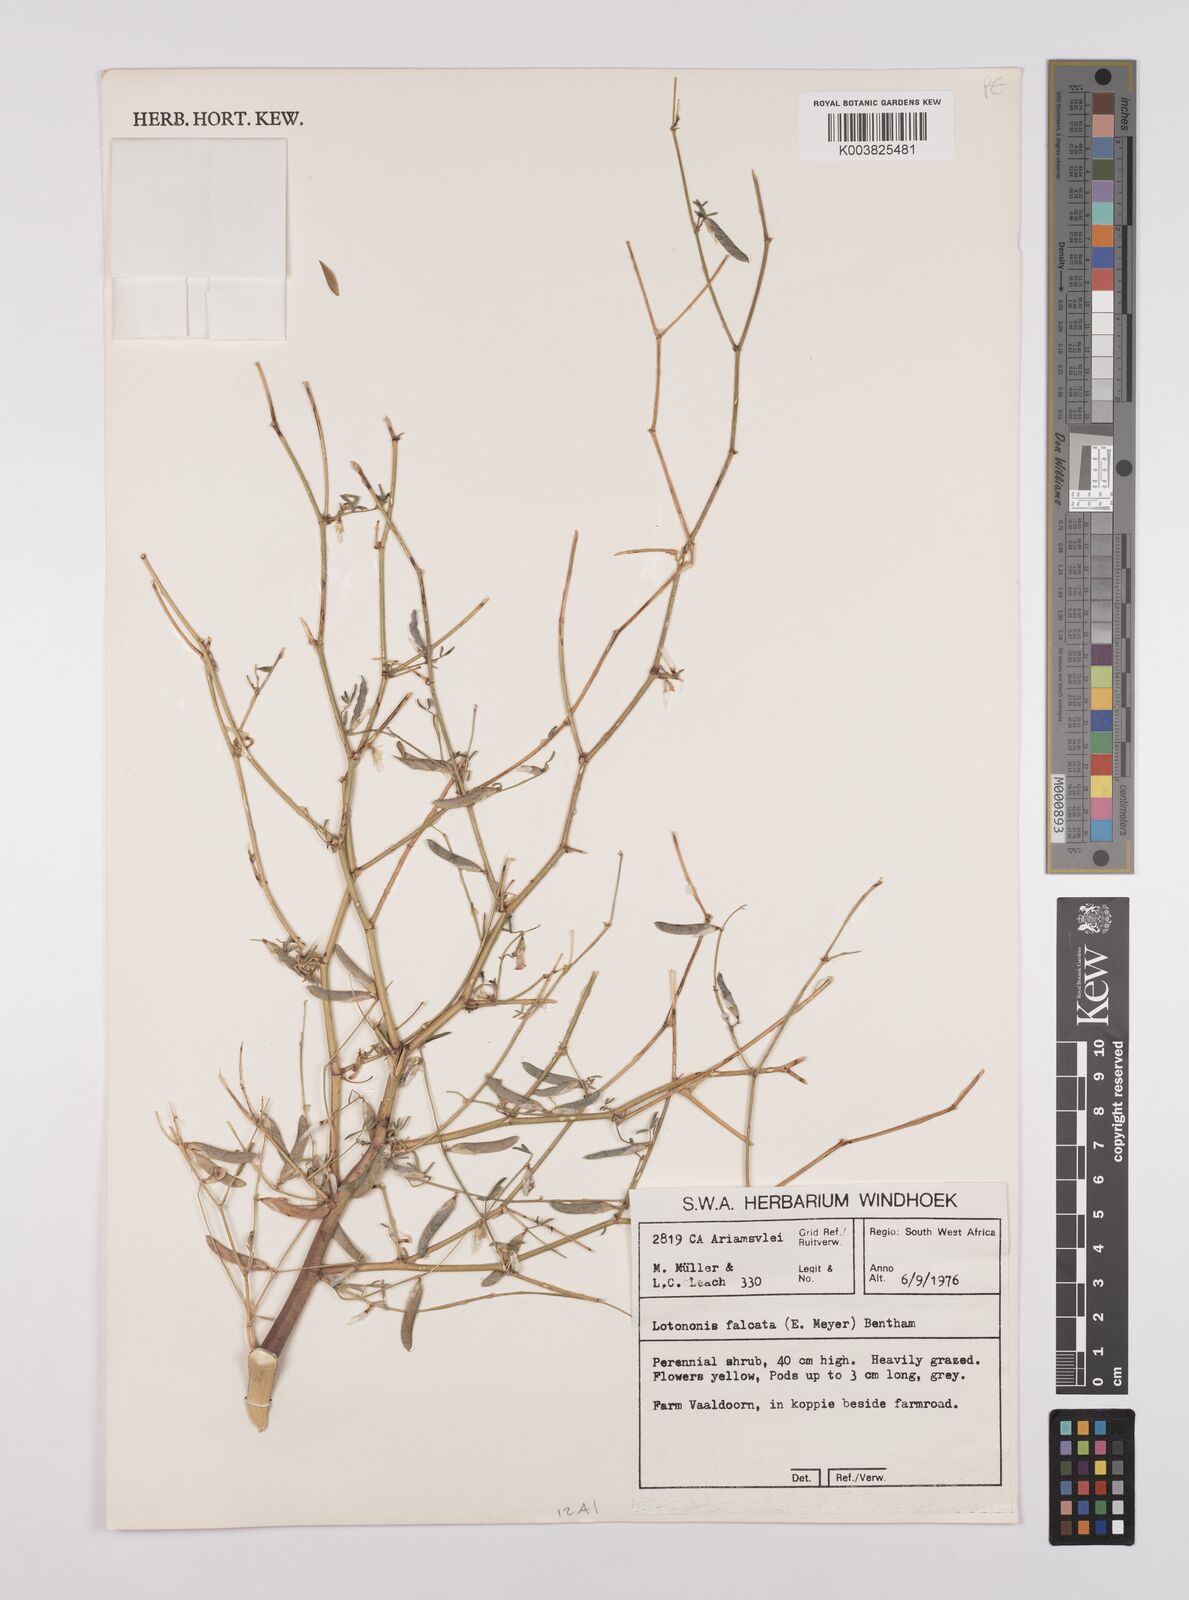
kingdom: Plantae
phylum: Tracheophyta
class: Magnoliopsida
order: Fabales
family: Fabaceae
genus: Lotononis
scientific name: Lotononis falcata
